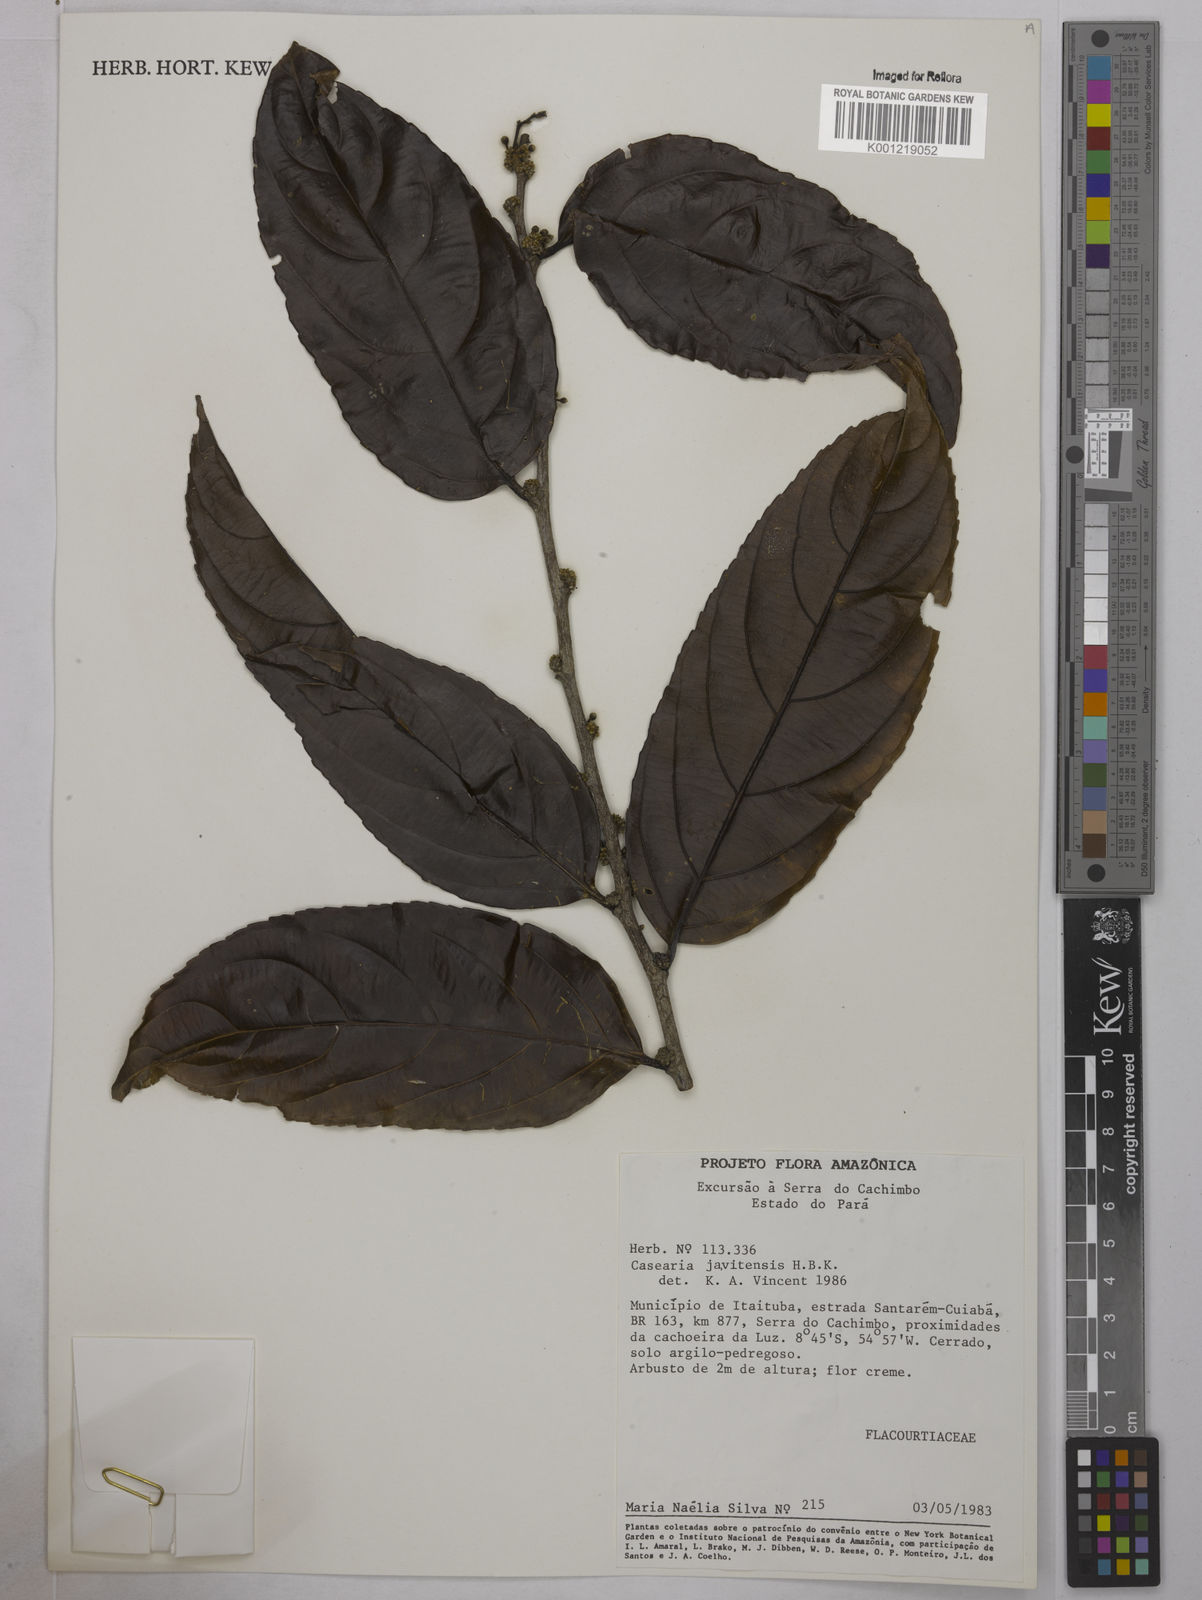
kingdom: Plantae
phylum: Tracheophyta
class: Magnoliopsida
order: Malpighiales
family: Salicaceae
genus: Piparea
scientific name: Piparea multiflora
